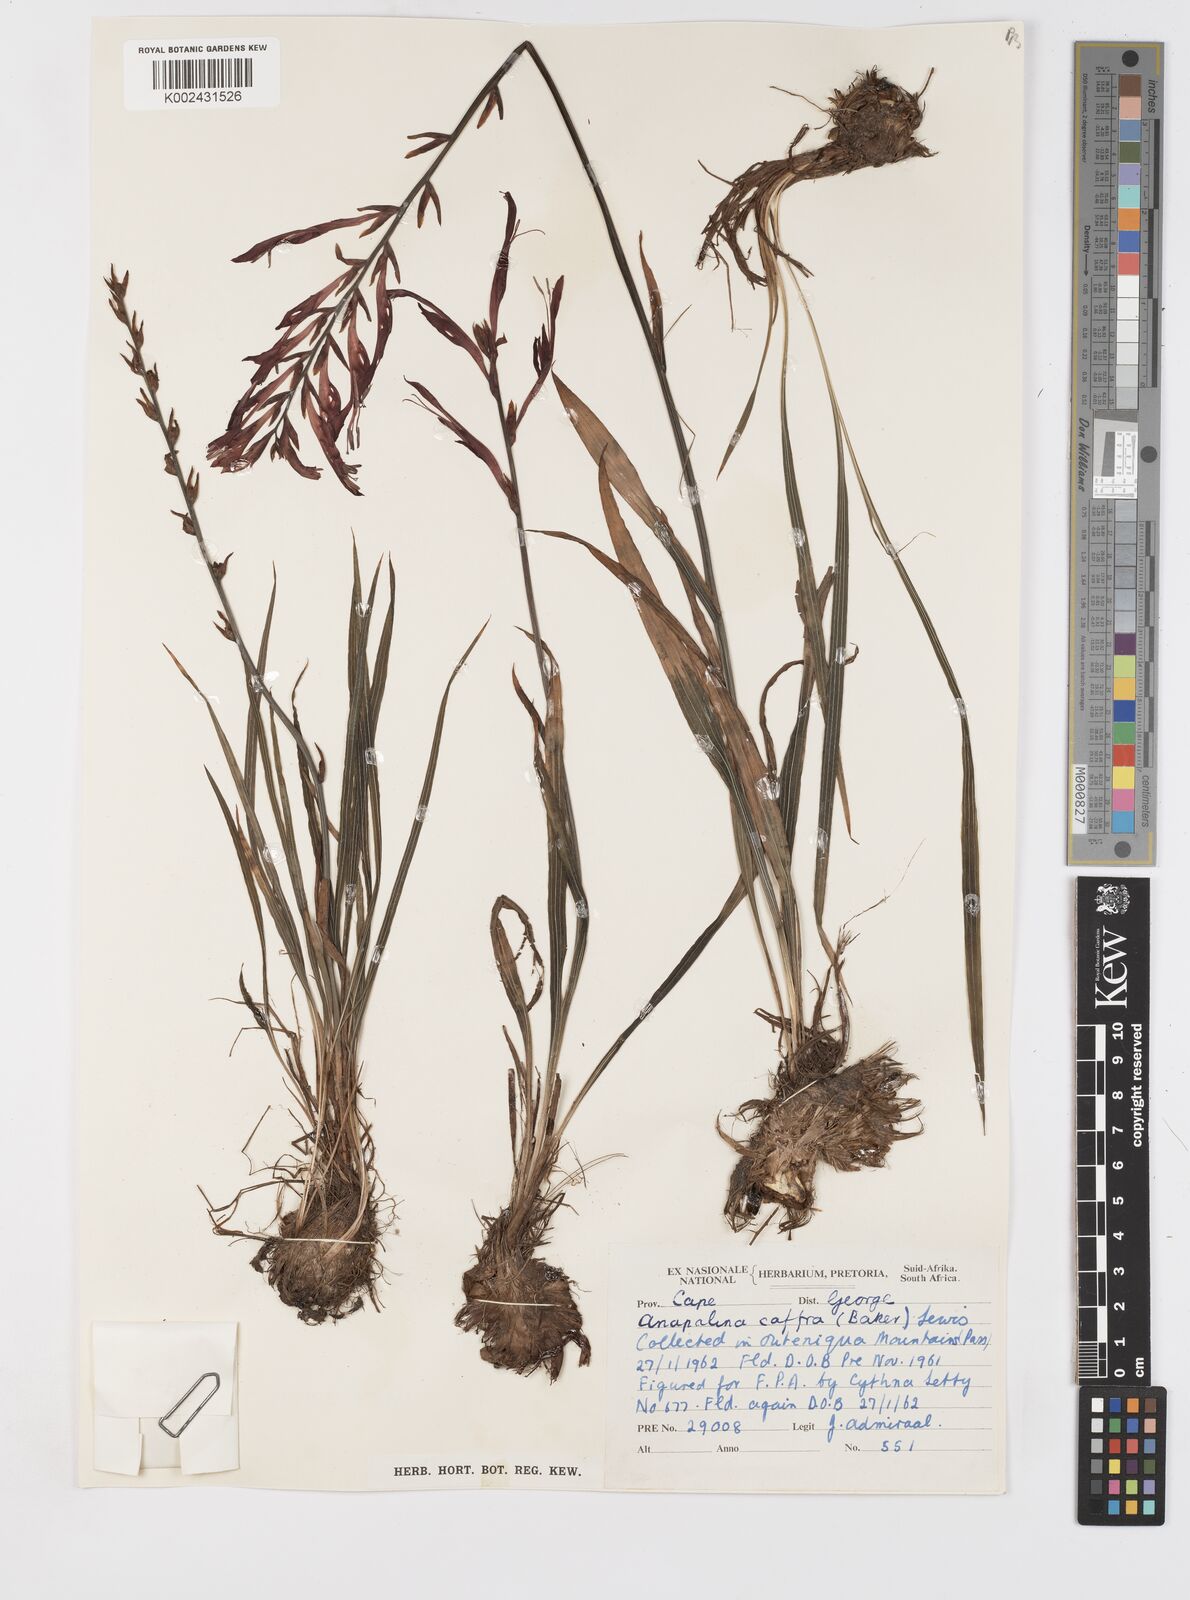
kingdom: Plantae
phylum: Tracheophyta
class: Liliopsida
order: Asparagales
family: Iridaceae
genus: Tritoniopsis
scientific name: Tritoniopsis caffra
